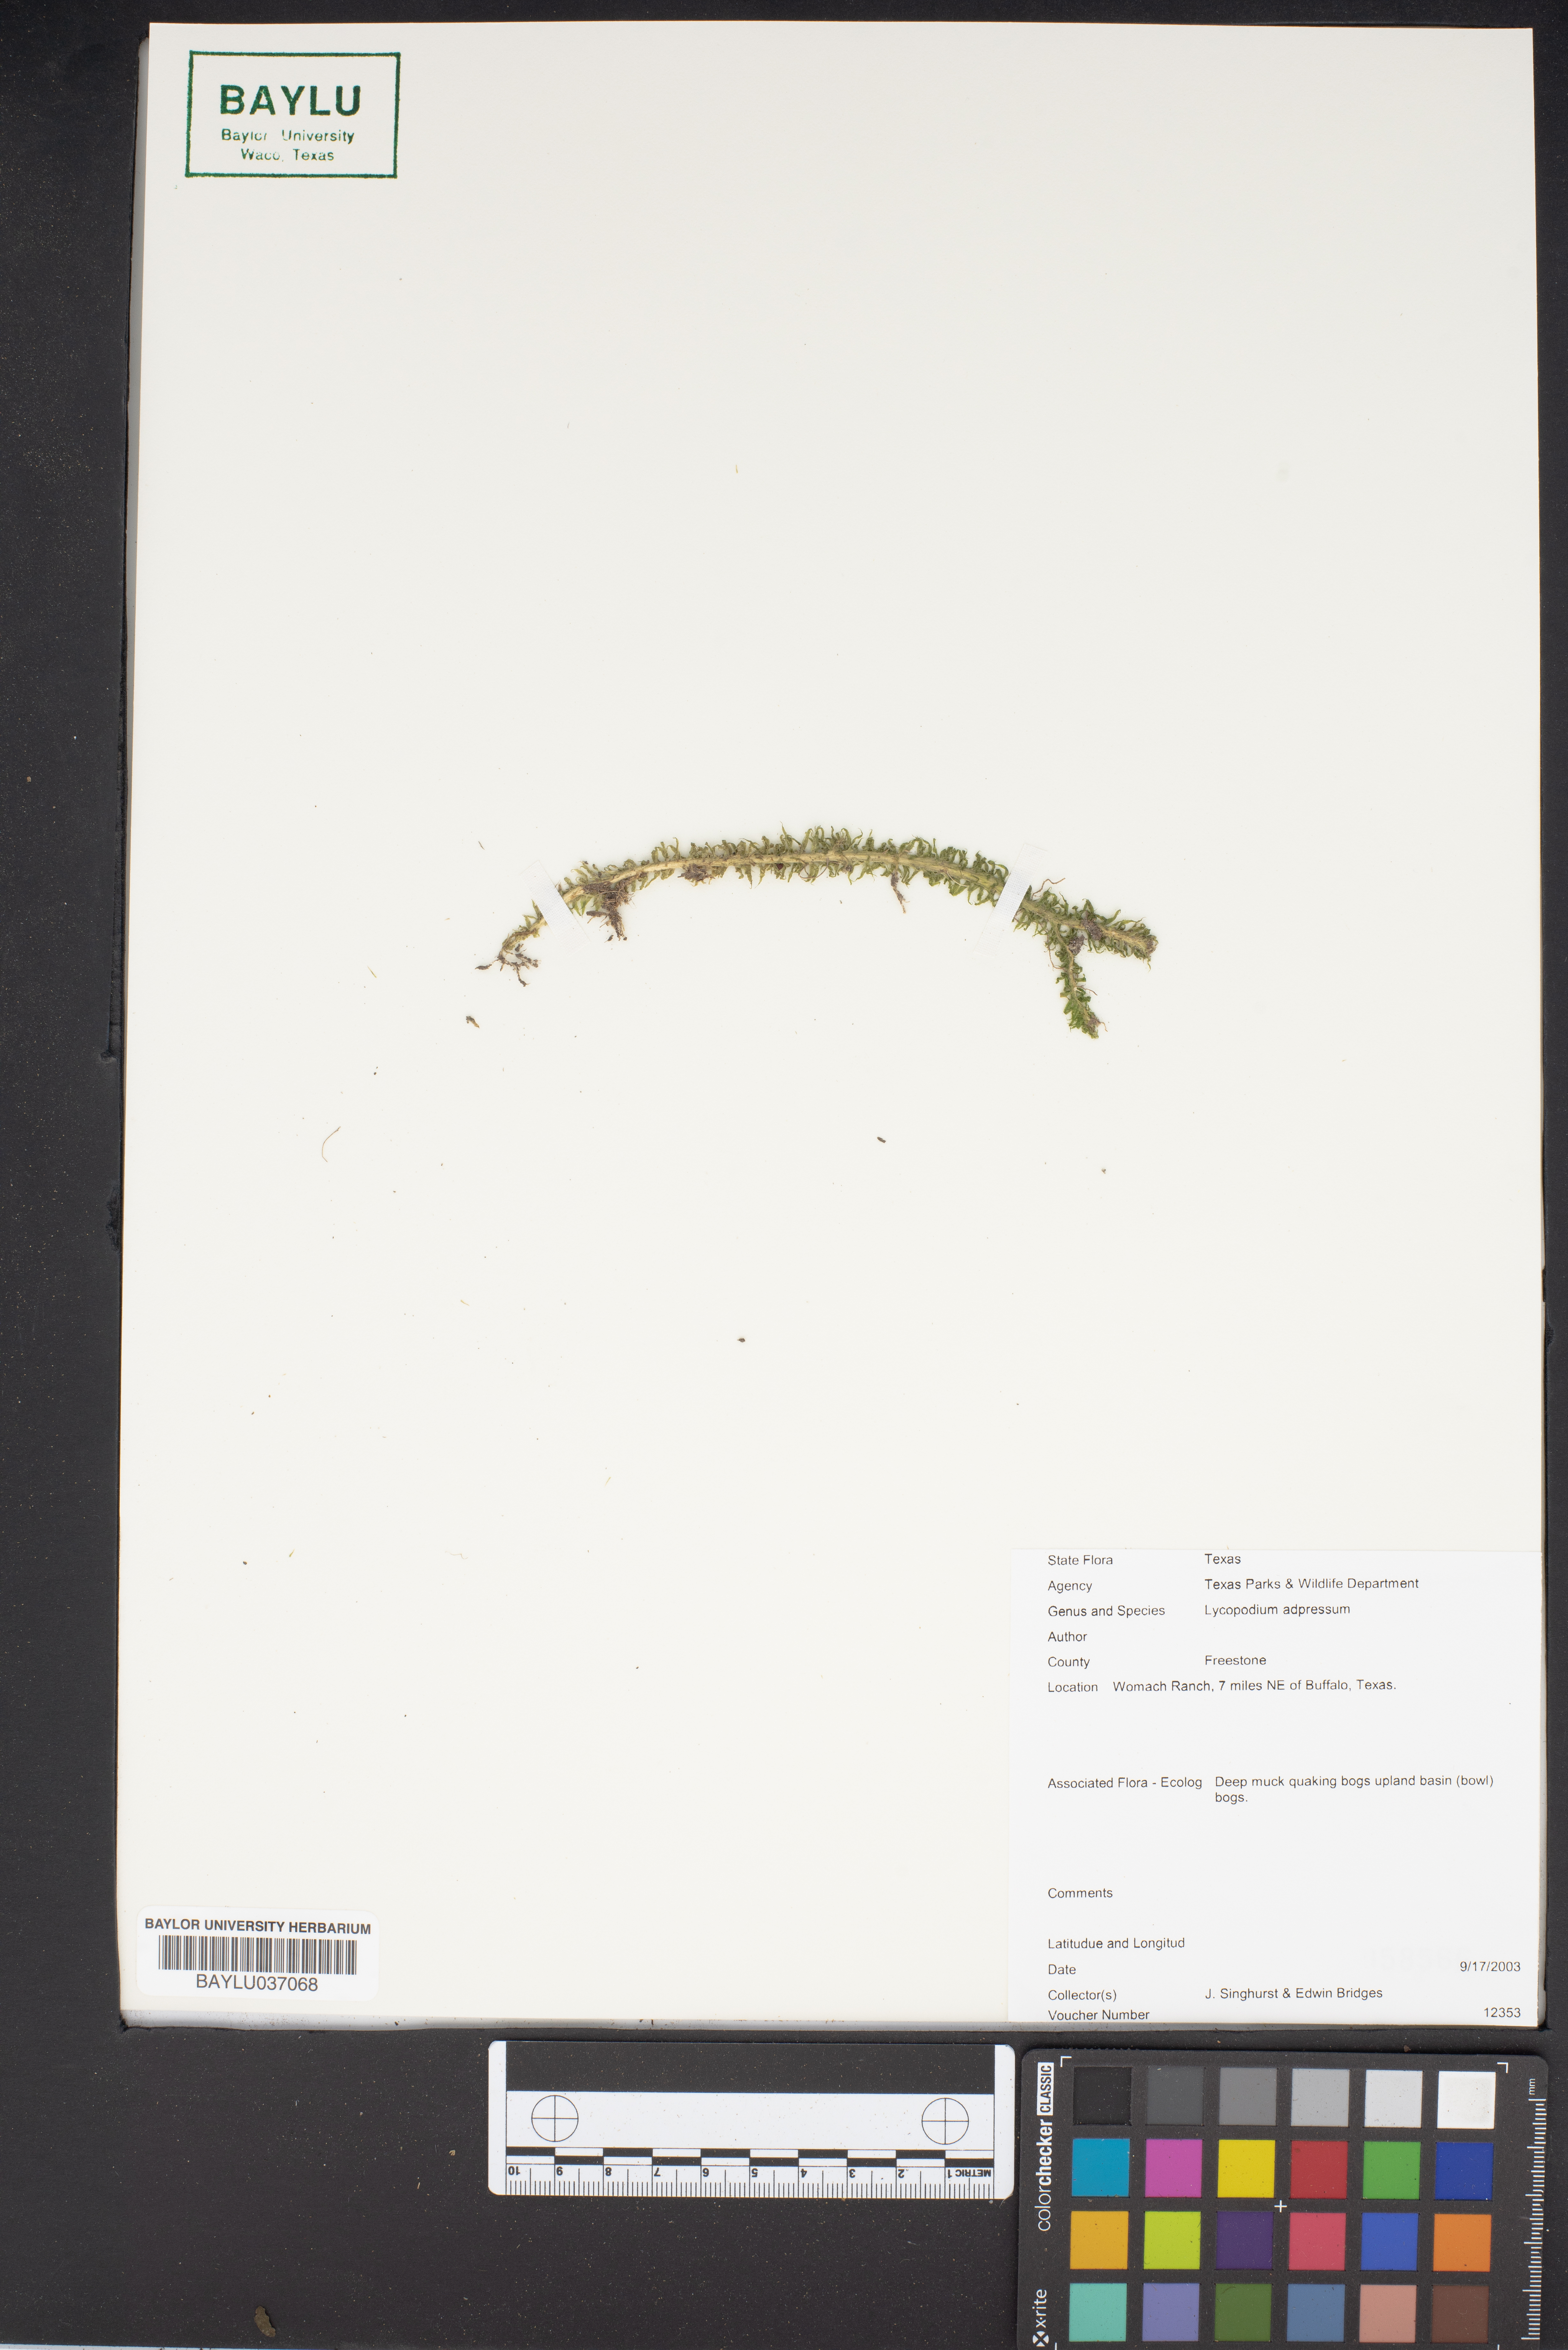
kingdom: Plantae
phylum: Tracheophyta
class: Lycopodiopsida
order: Lycopodiales
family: Lycopodiaceae
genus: Lycopodiella
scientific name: Lycopodiella appressa
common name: Appressed bog clubmoss
